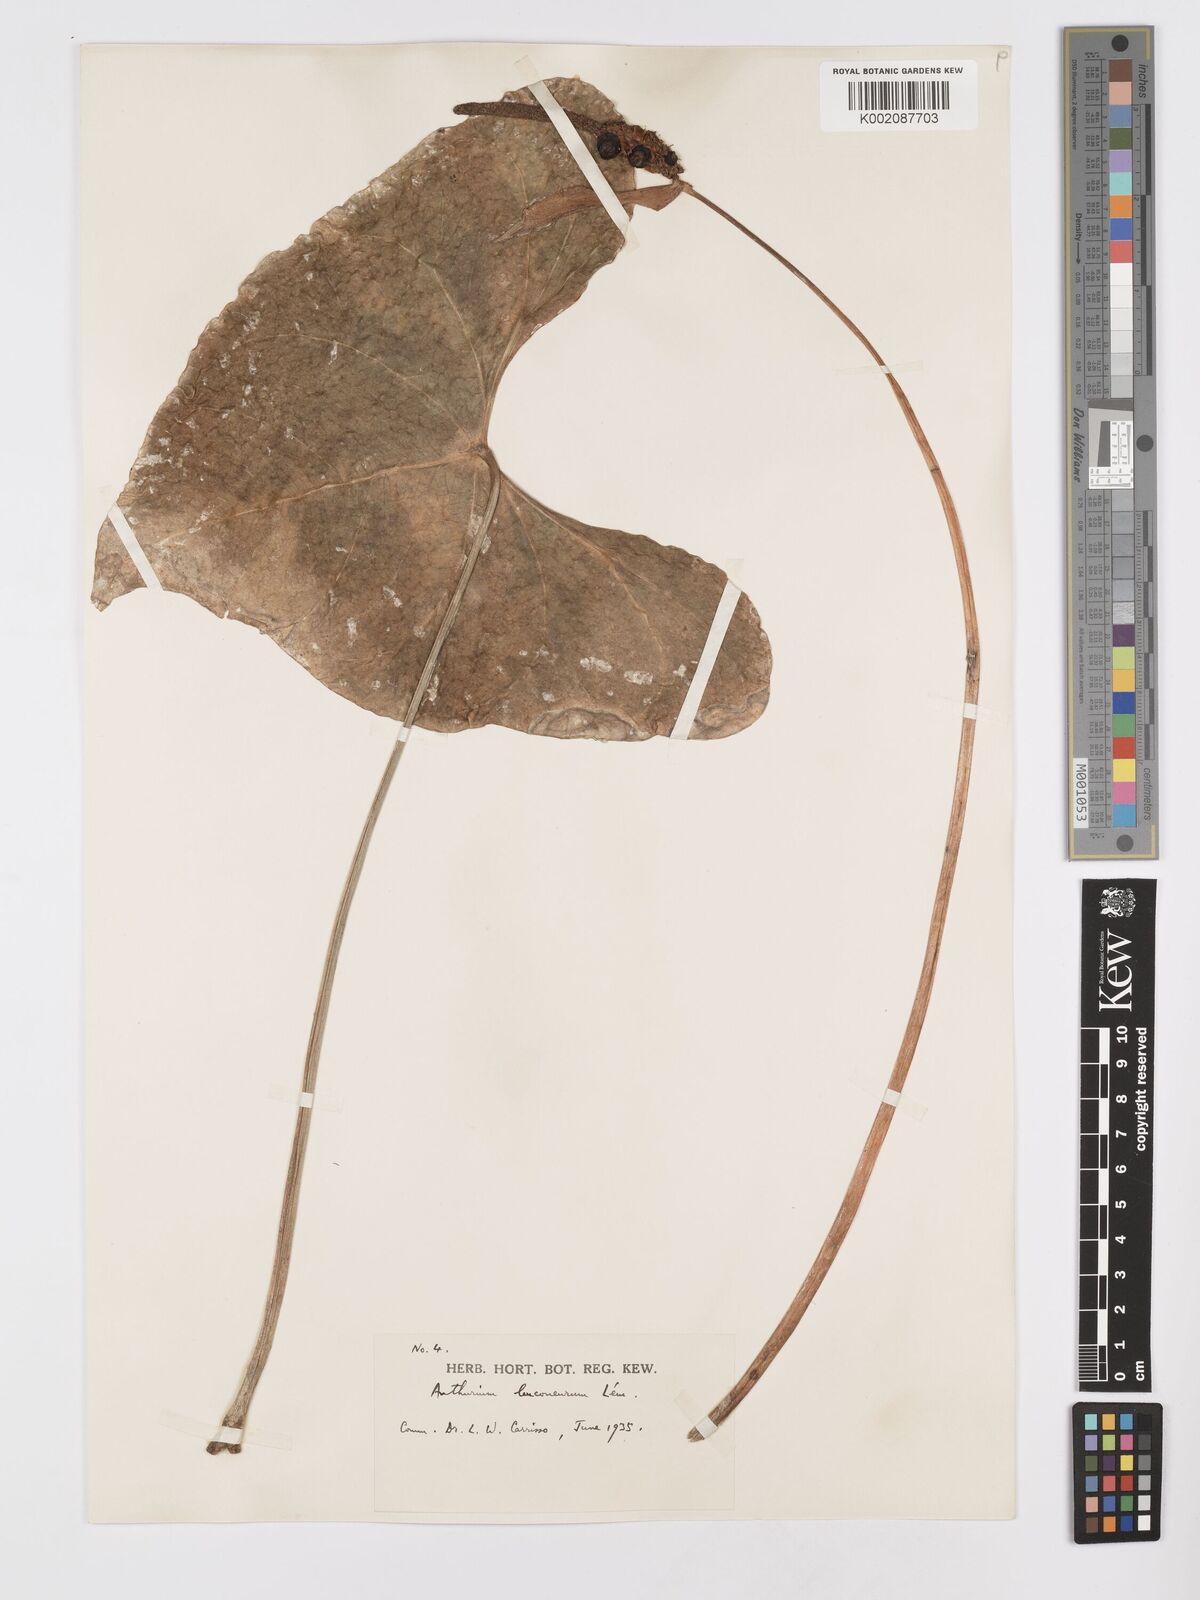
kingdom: Plantae
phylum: Tracheophyta
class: Liliopsida
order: Alismatales
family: Araceae
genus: Anthurium
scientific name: Anthurium leuconeurum
